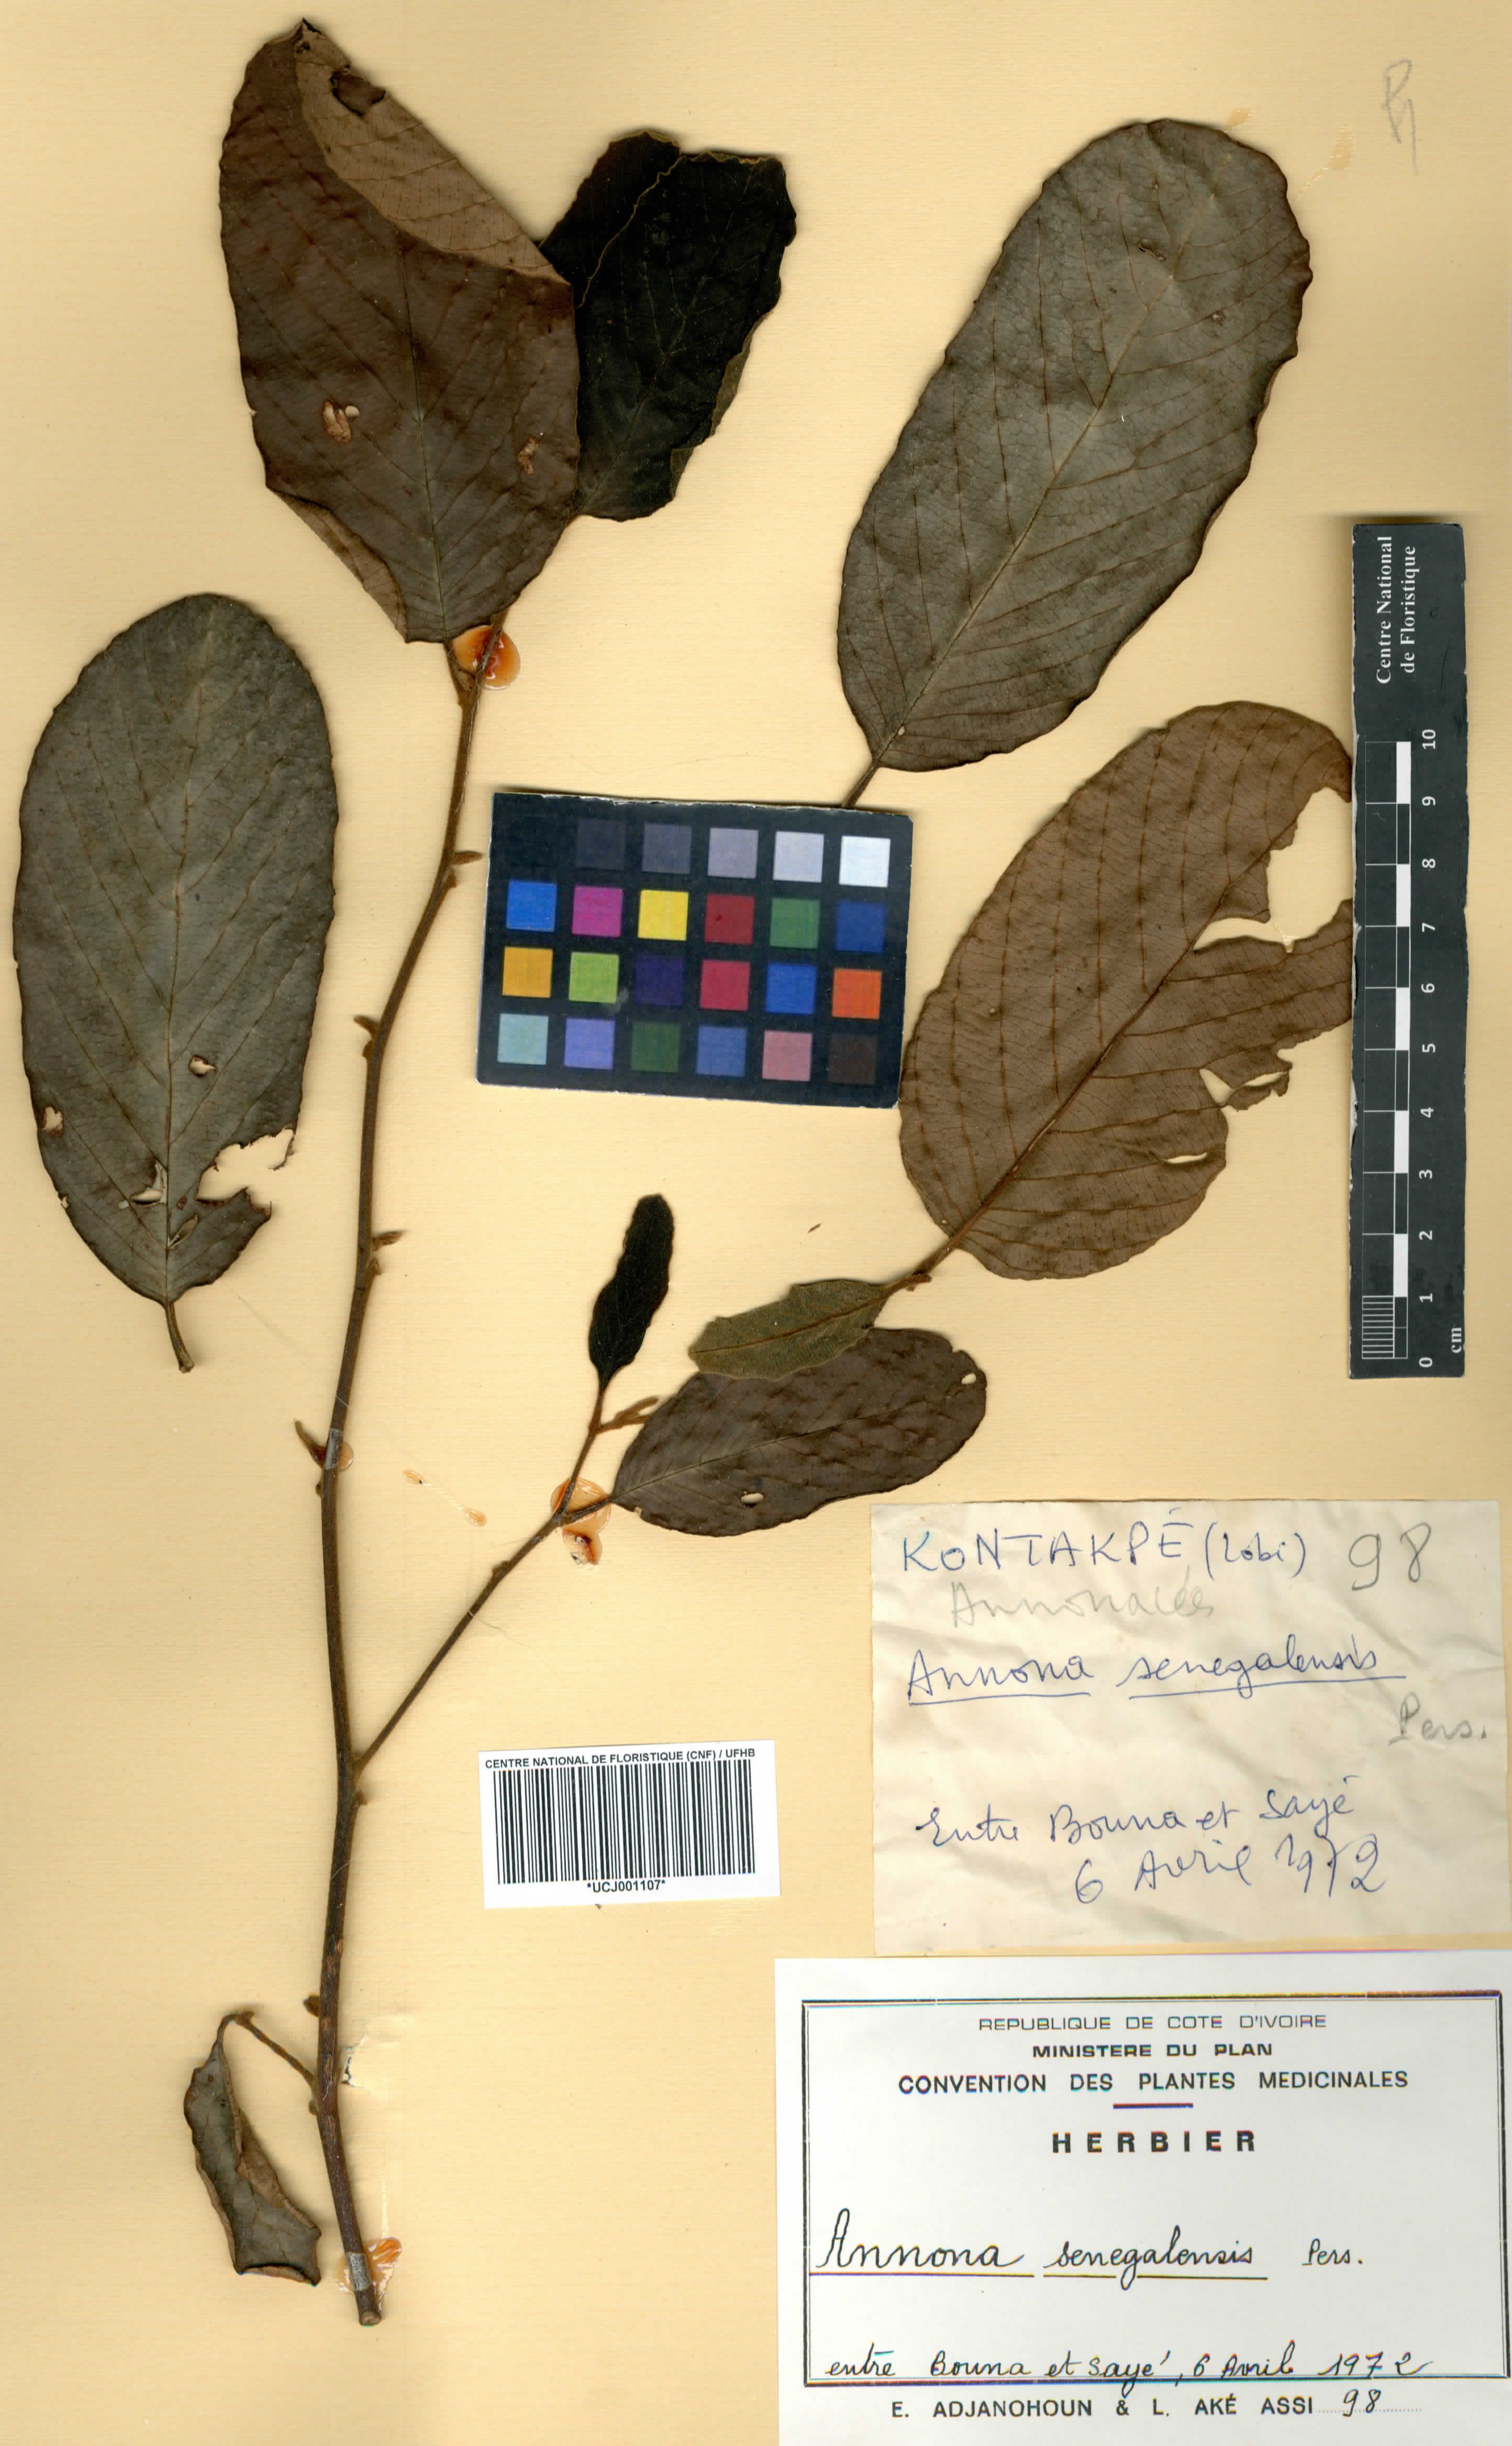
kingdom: Plantae
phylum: Tracheophyta
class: Magnoliopsida
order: Magnoliales
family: Annonaceae
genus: Annona
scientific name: Annona senegalensis
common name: Wild custard-apple
